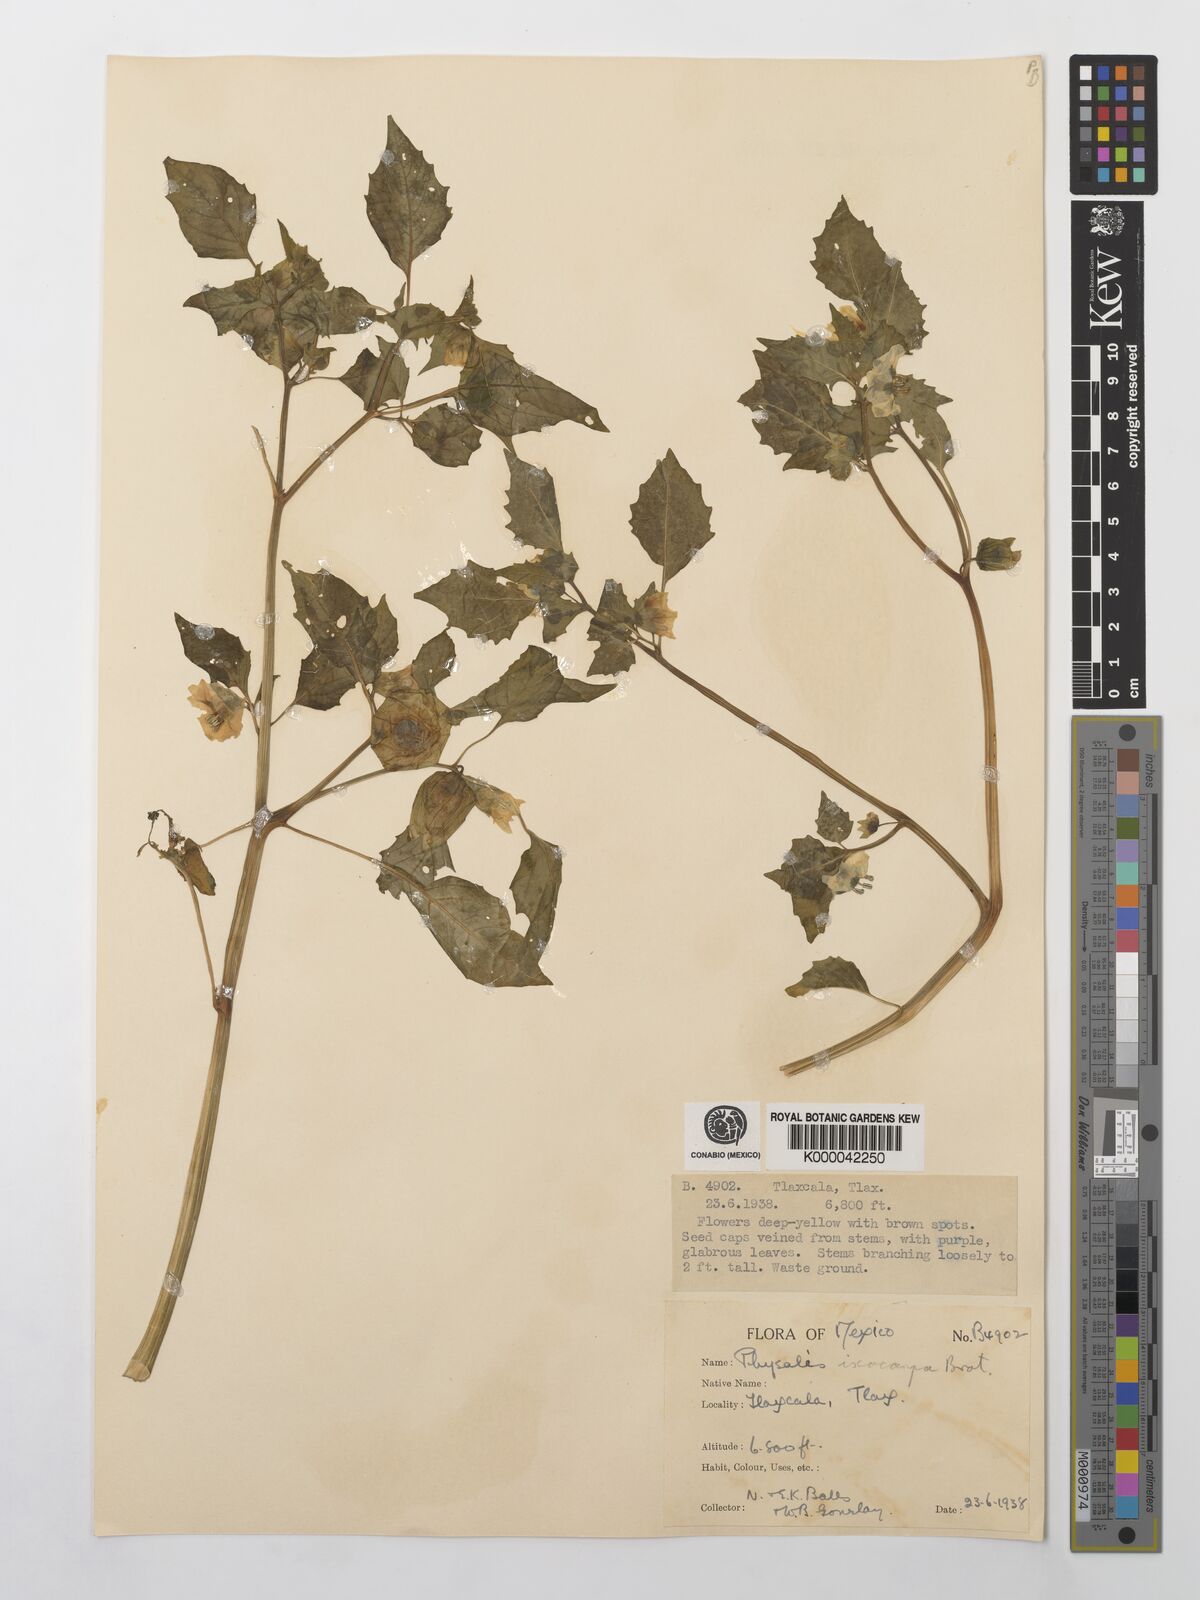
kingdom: Plantae
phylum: Tracheophyta
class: Magnoliopsida
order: Solanales
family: Solanaceae
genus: Physalis
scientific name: Physalis philadelphica
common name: Husk-tomato
